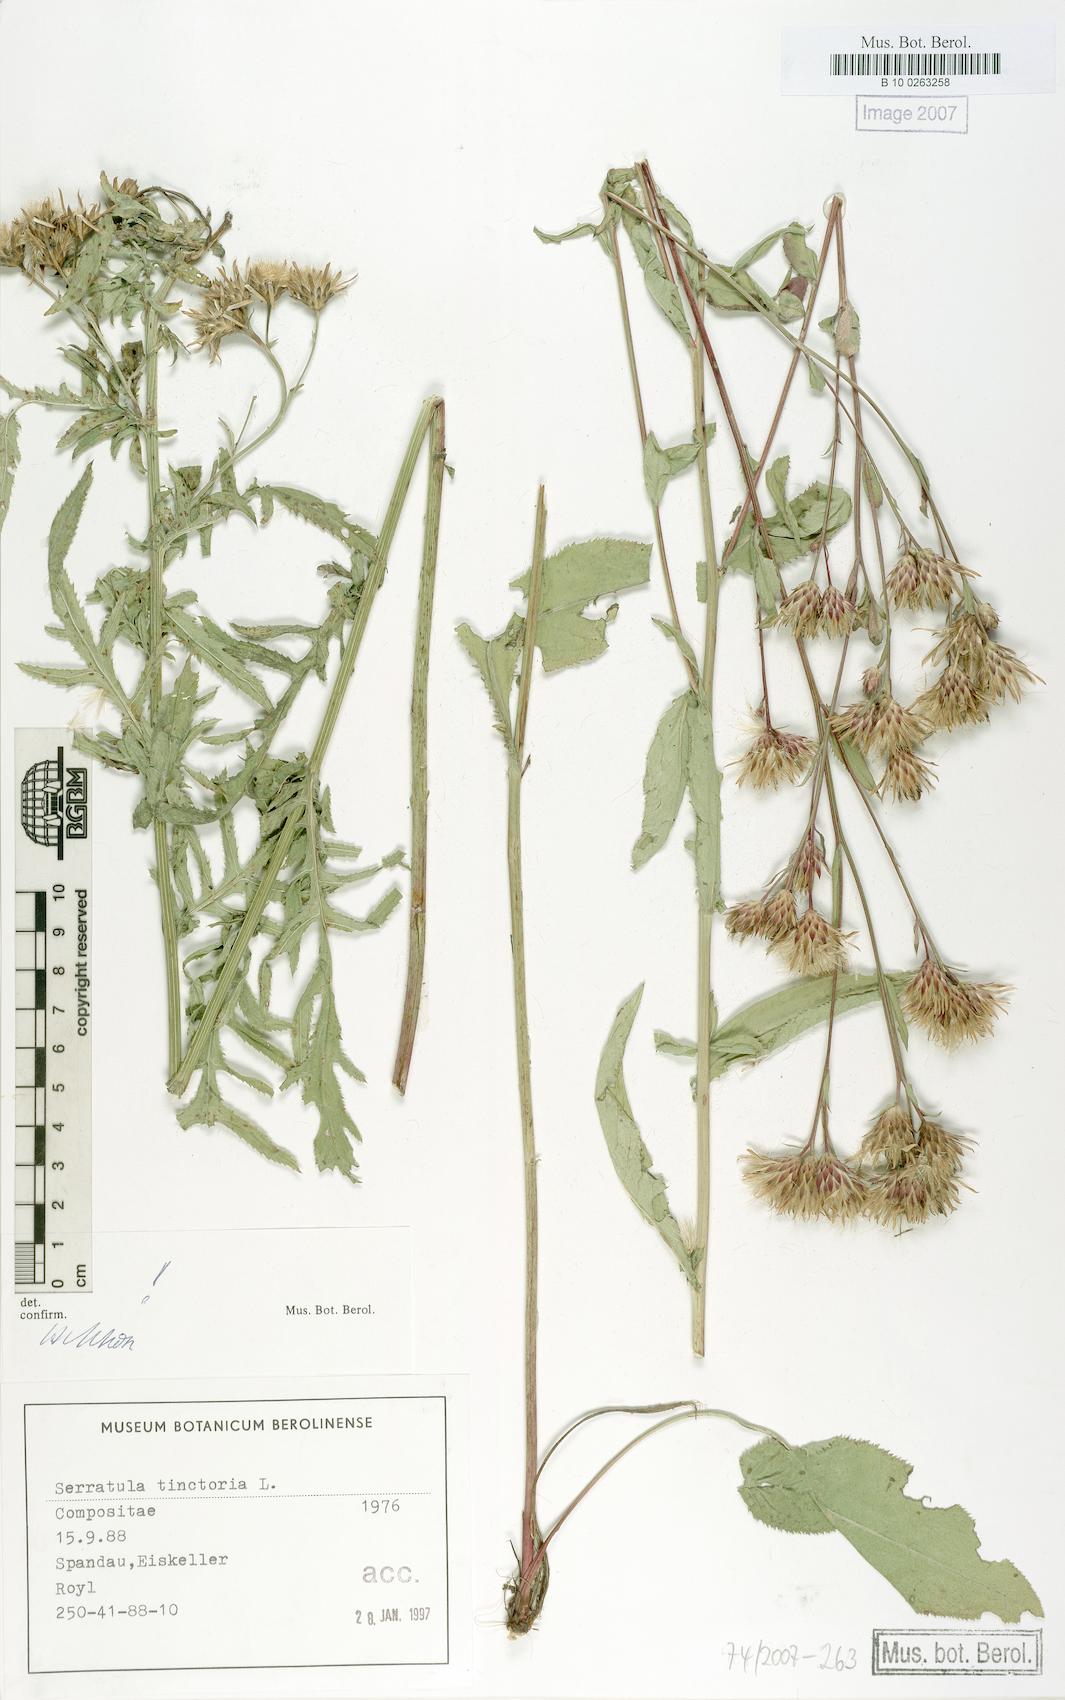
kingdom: Plantae
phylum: Tracheophyta
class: Magnoliopsida
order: Asterales
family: Asteraceae
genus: Serratula
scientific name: Serratula tinctoria
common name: Saw-wort
